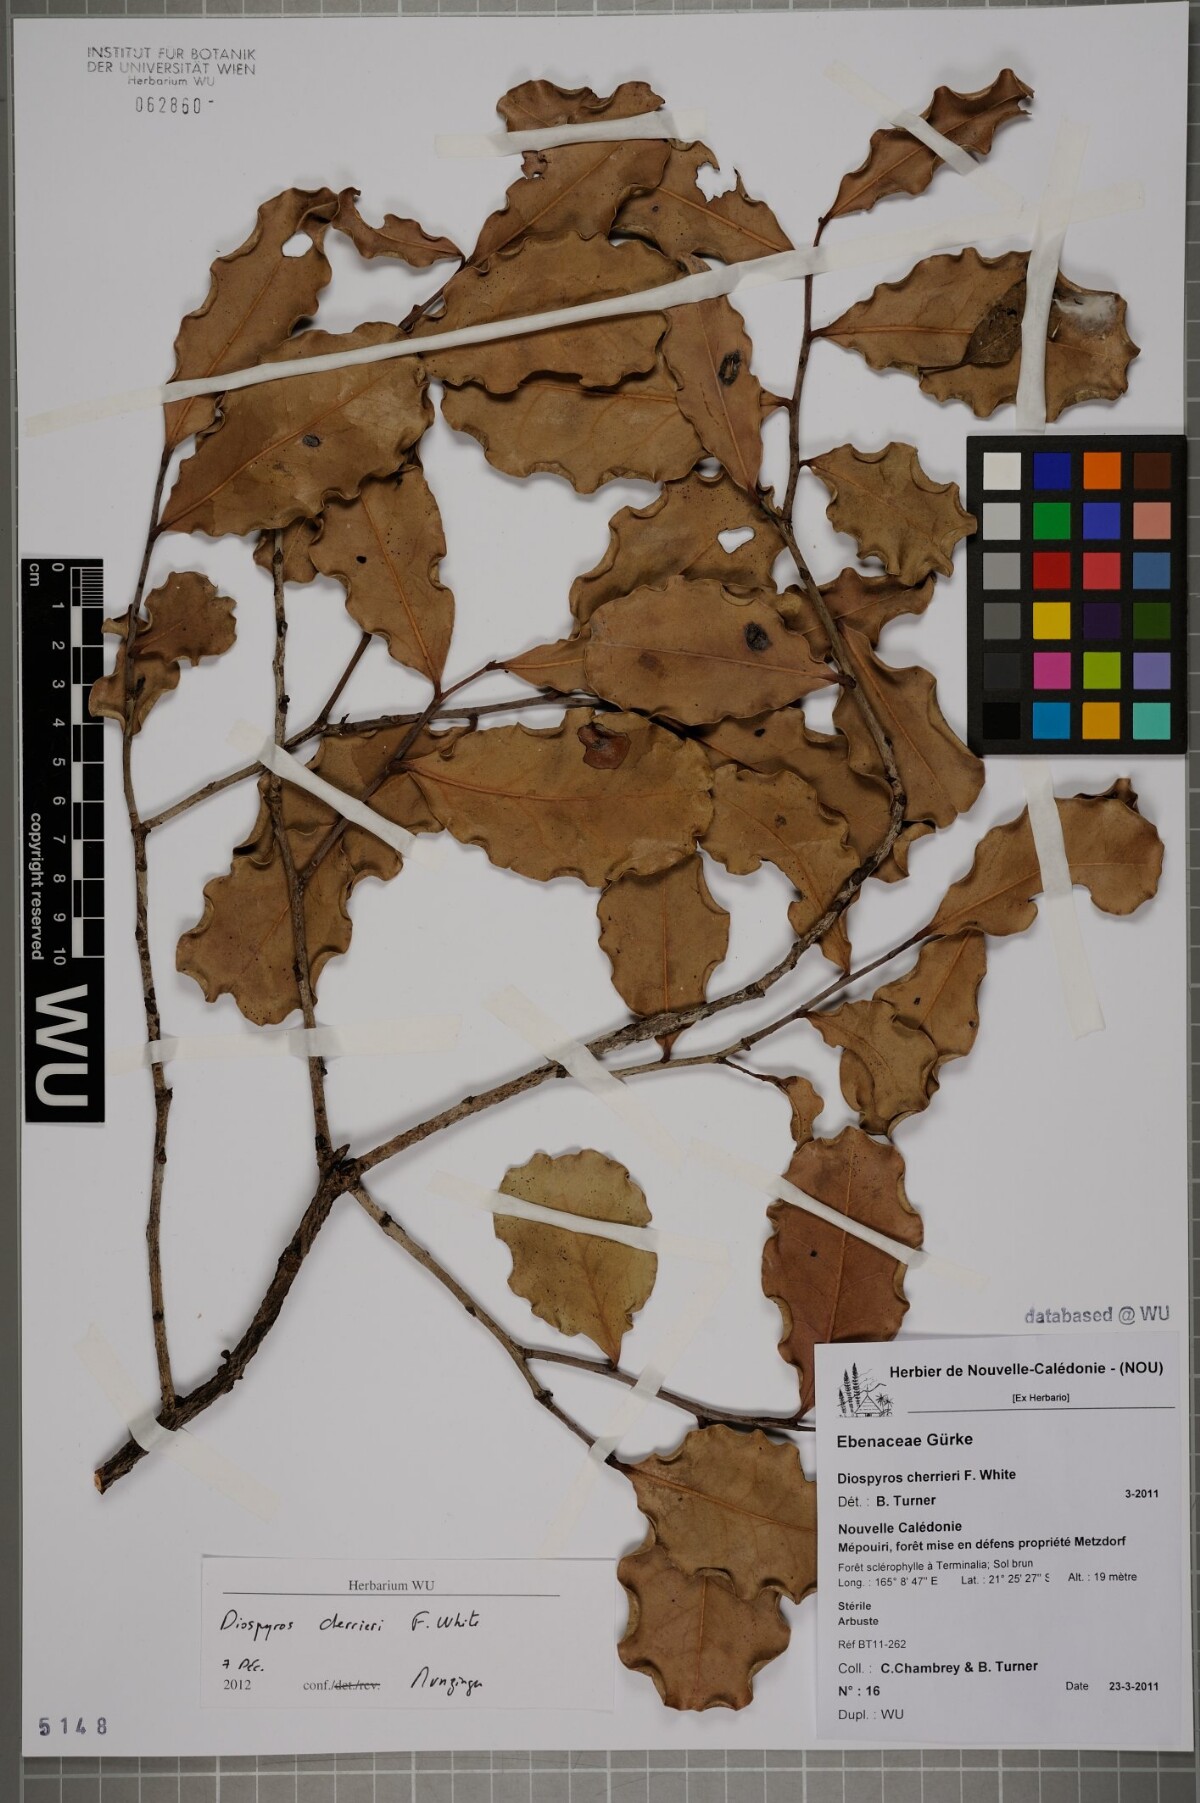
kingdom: Plantae
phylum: Tracheophyta
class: Magnoliopsida
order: Ericales
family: Ebenaceae
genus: Diospyros
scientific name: Diospyros cherrieri
